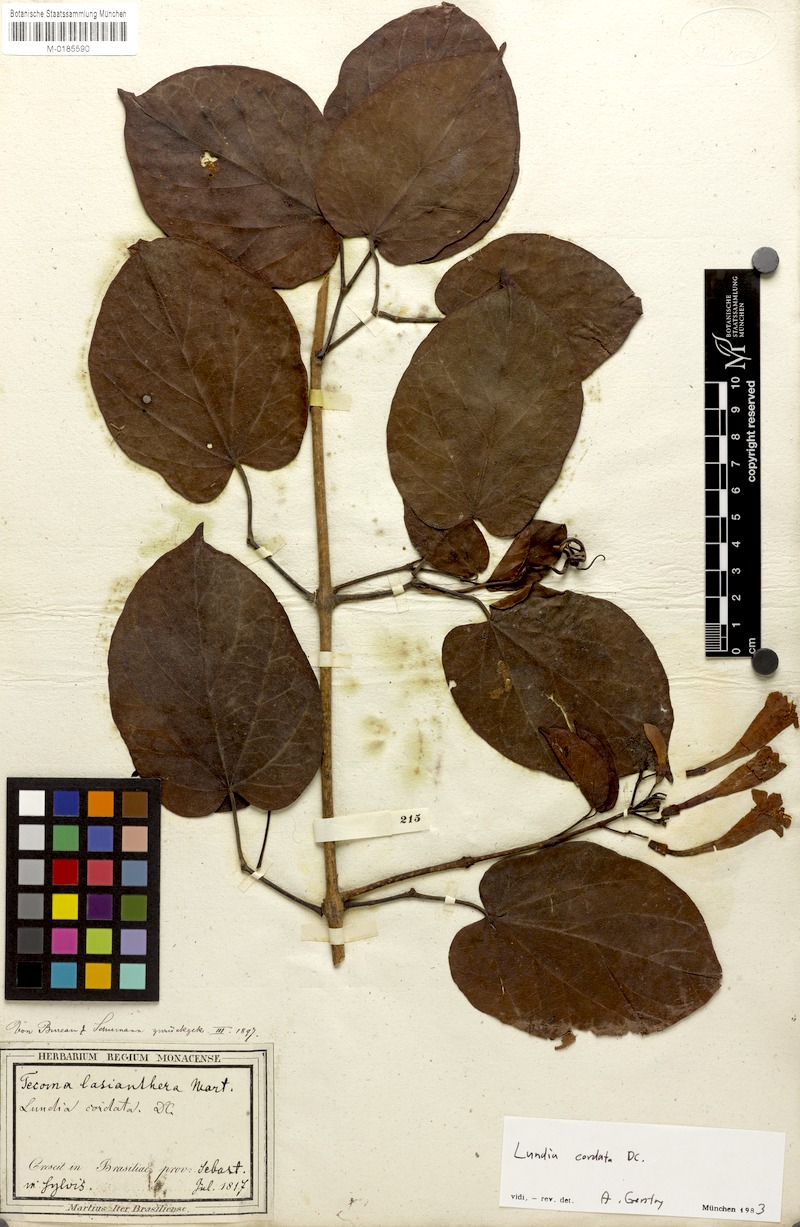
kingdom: Plantae
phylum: Tracheophyta
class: Magnoliopsida
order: Lamiales
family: Bignoniaceae
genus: Lundia
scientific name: Lundia longa
